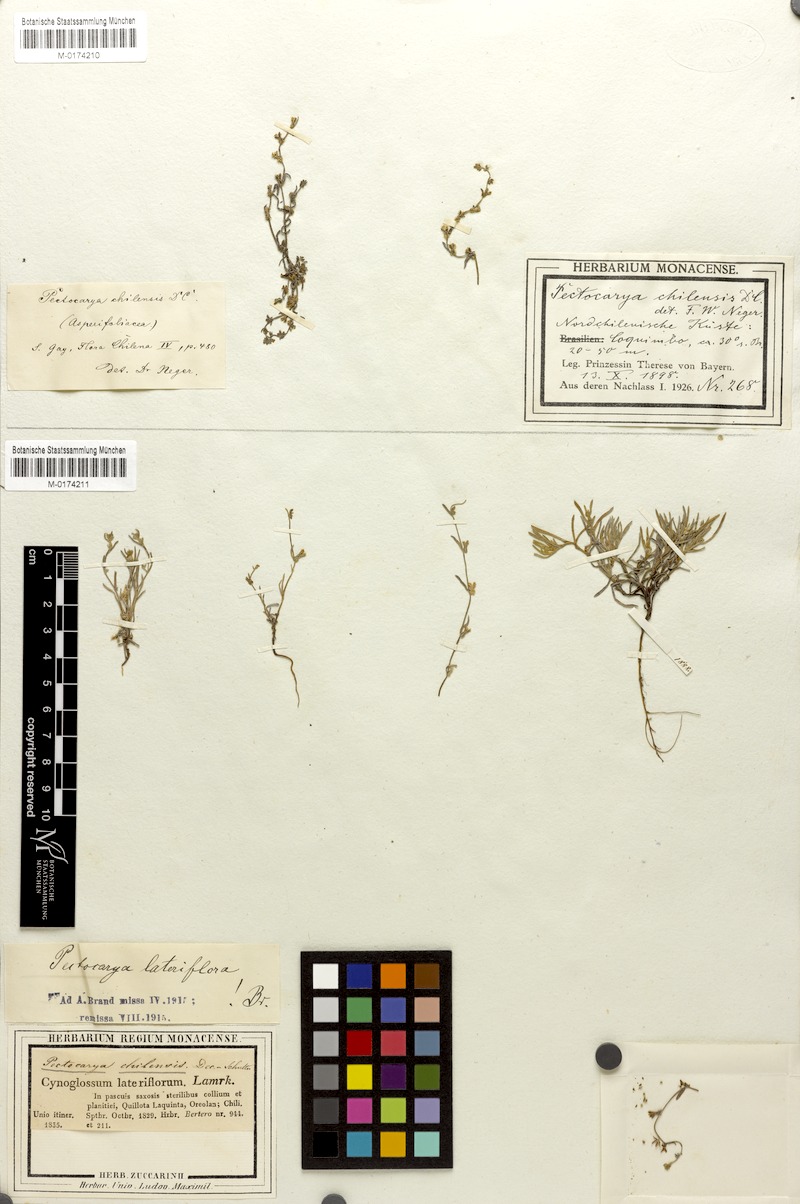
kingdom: Plantae
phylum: Tracheophyta
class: Magnoliopsida
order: Boraginales
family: Boraginaceae
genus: Pectocarya
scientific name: Pectocarya linearis
